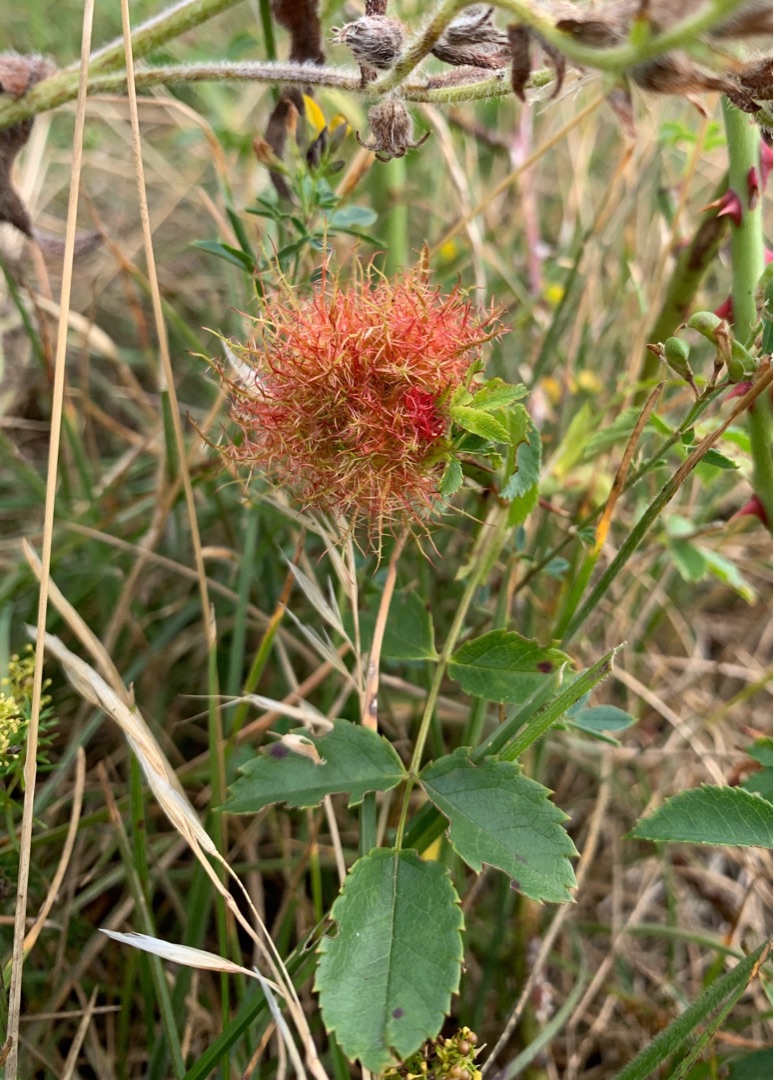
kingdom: Animalia
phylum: Arthropoda
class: Insecta
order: Hymenoptera
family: Cynipidae
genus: Diplolepis
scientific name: Diplolepis rosae
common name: Bedeguargalhveps
